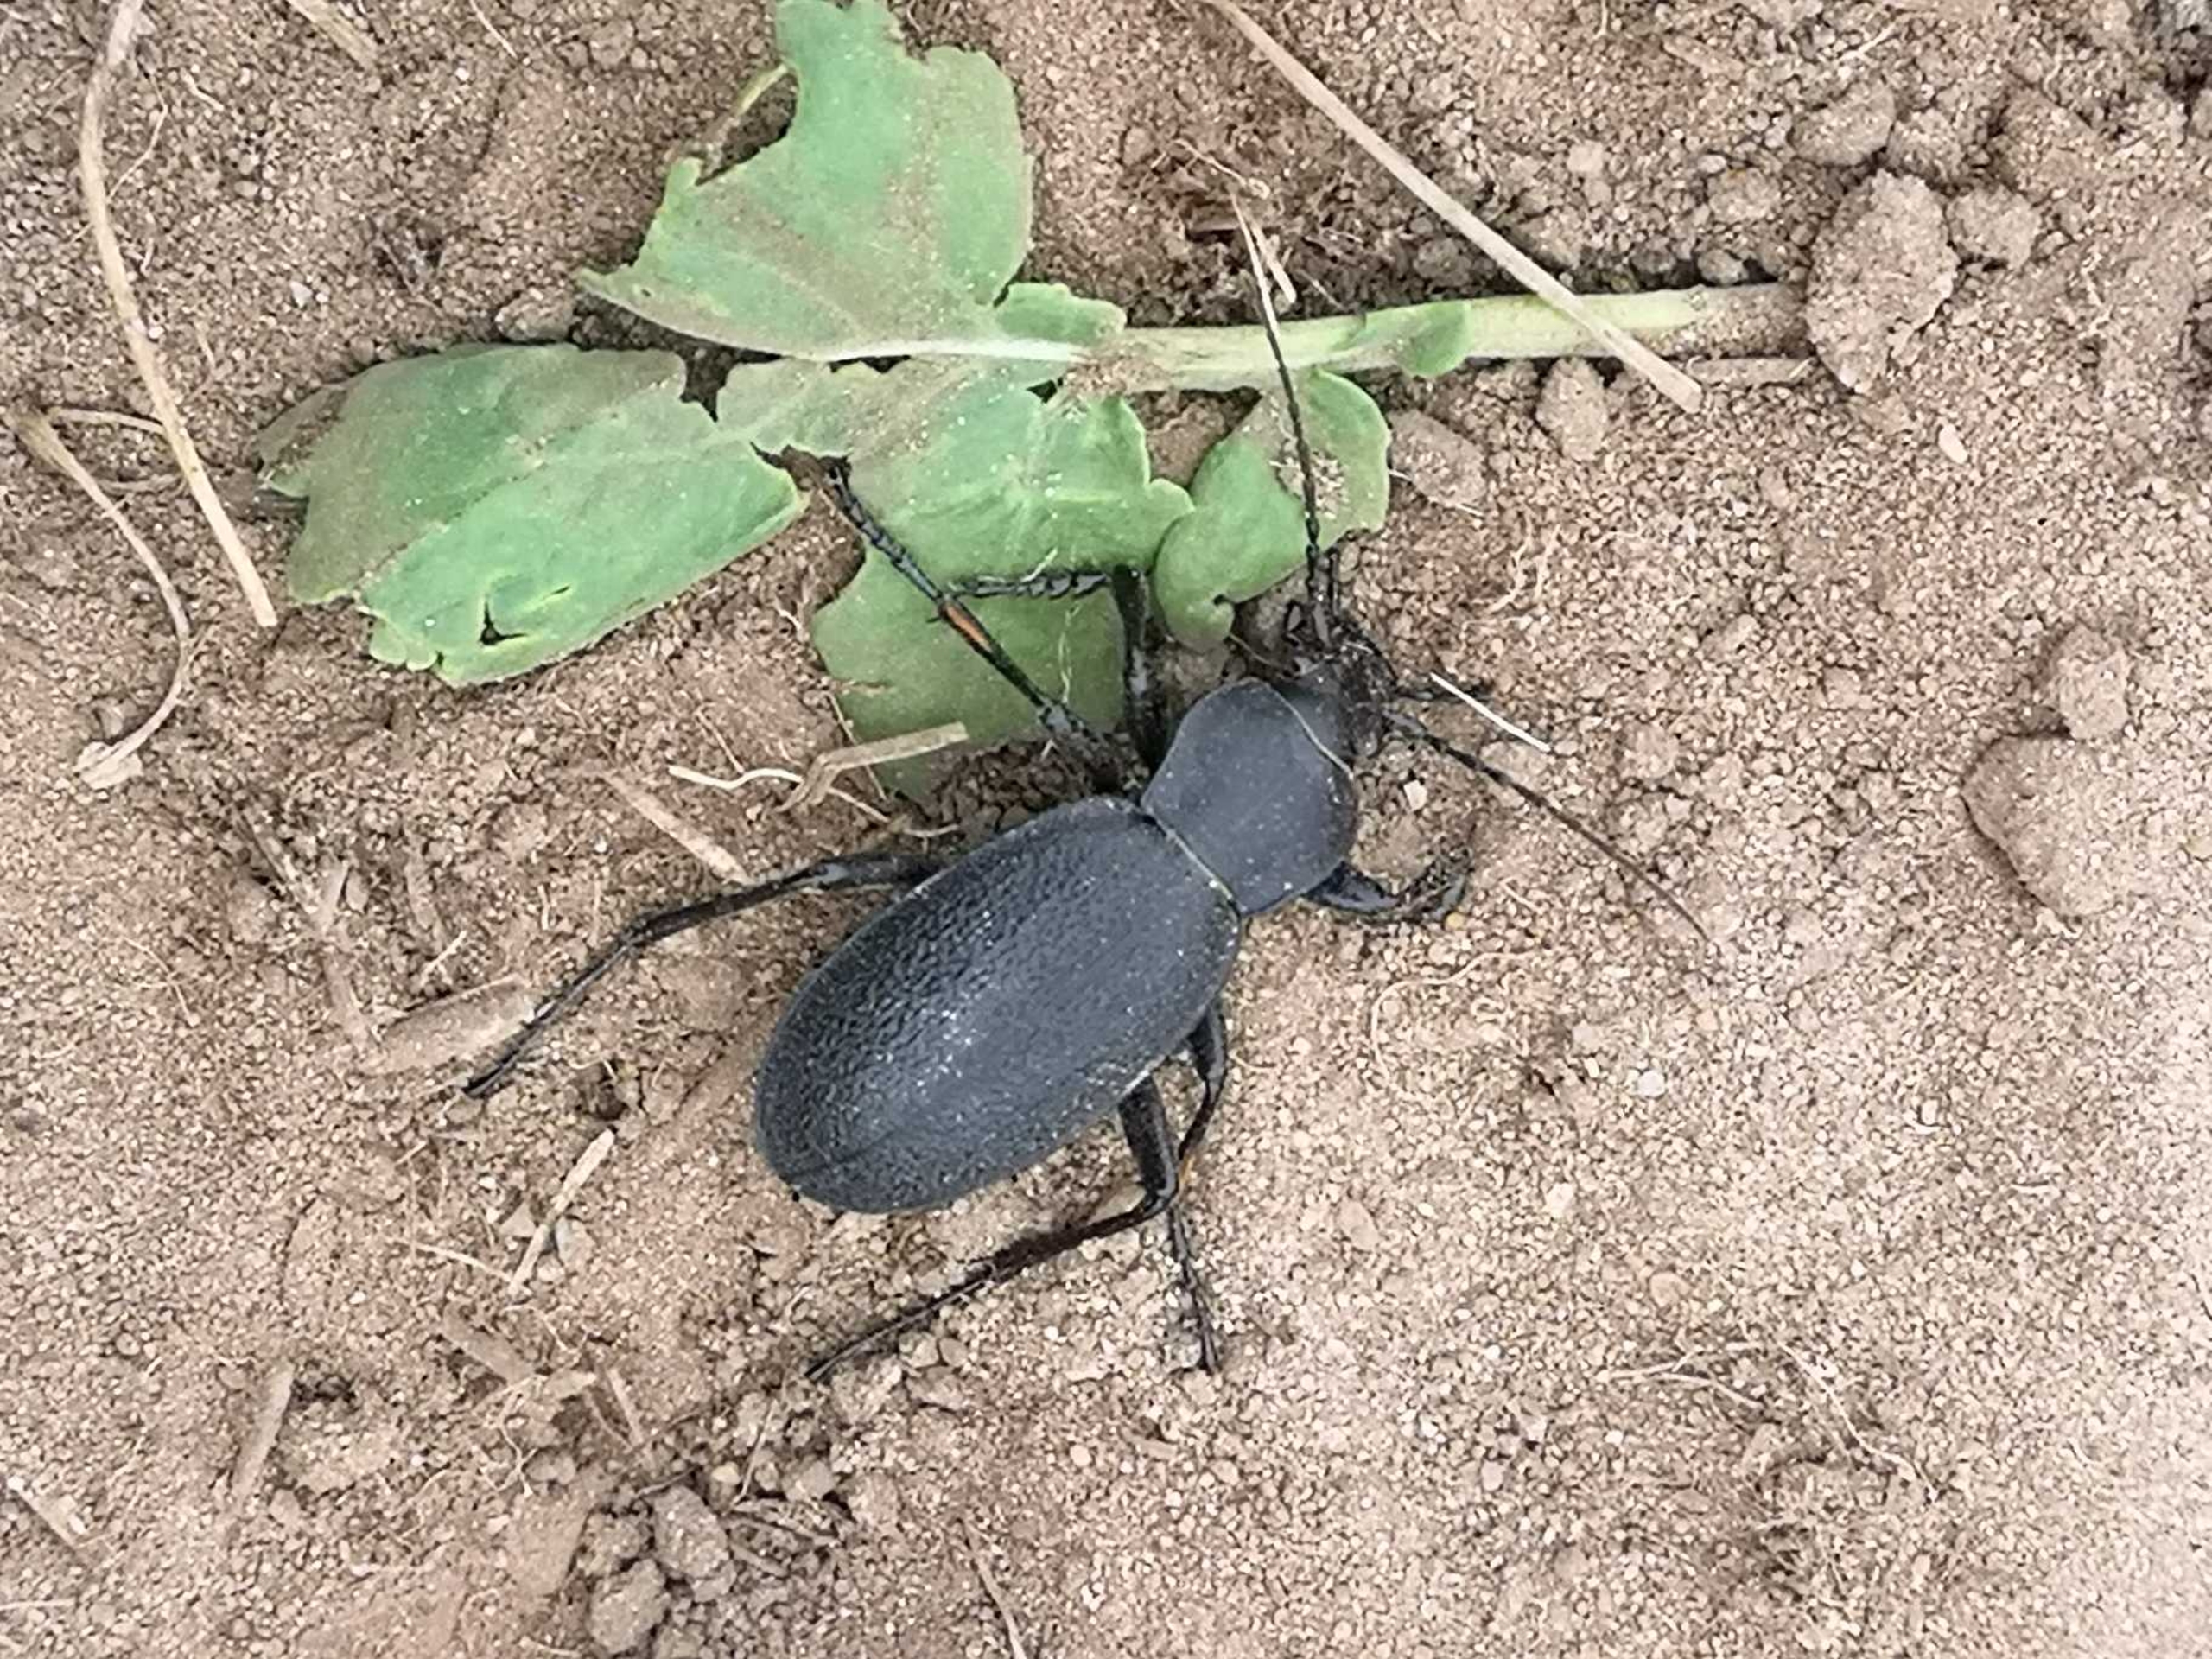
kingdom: Animalia
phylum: Arthropoda
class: Insecta
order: Coleoptera
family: Carabidae
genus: Carabus
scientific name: Carabus coriaceus
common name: Læderløber
